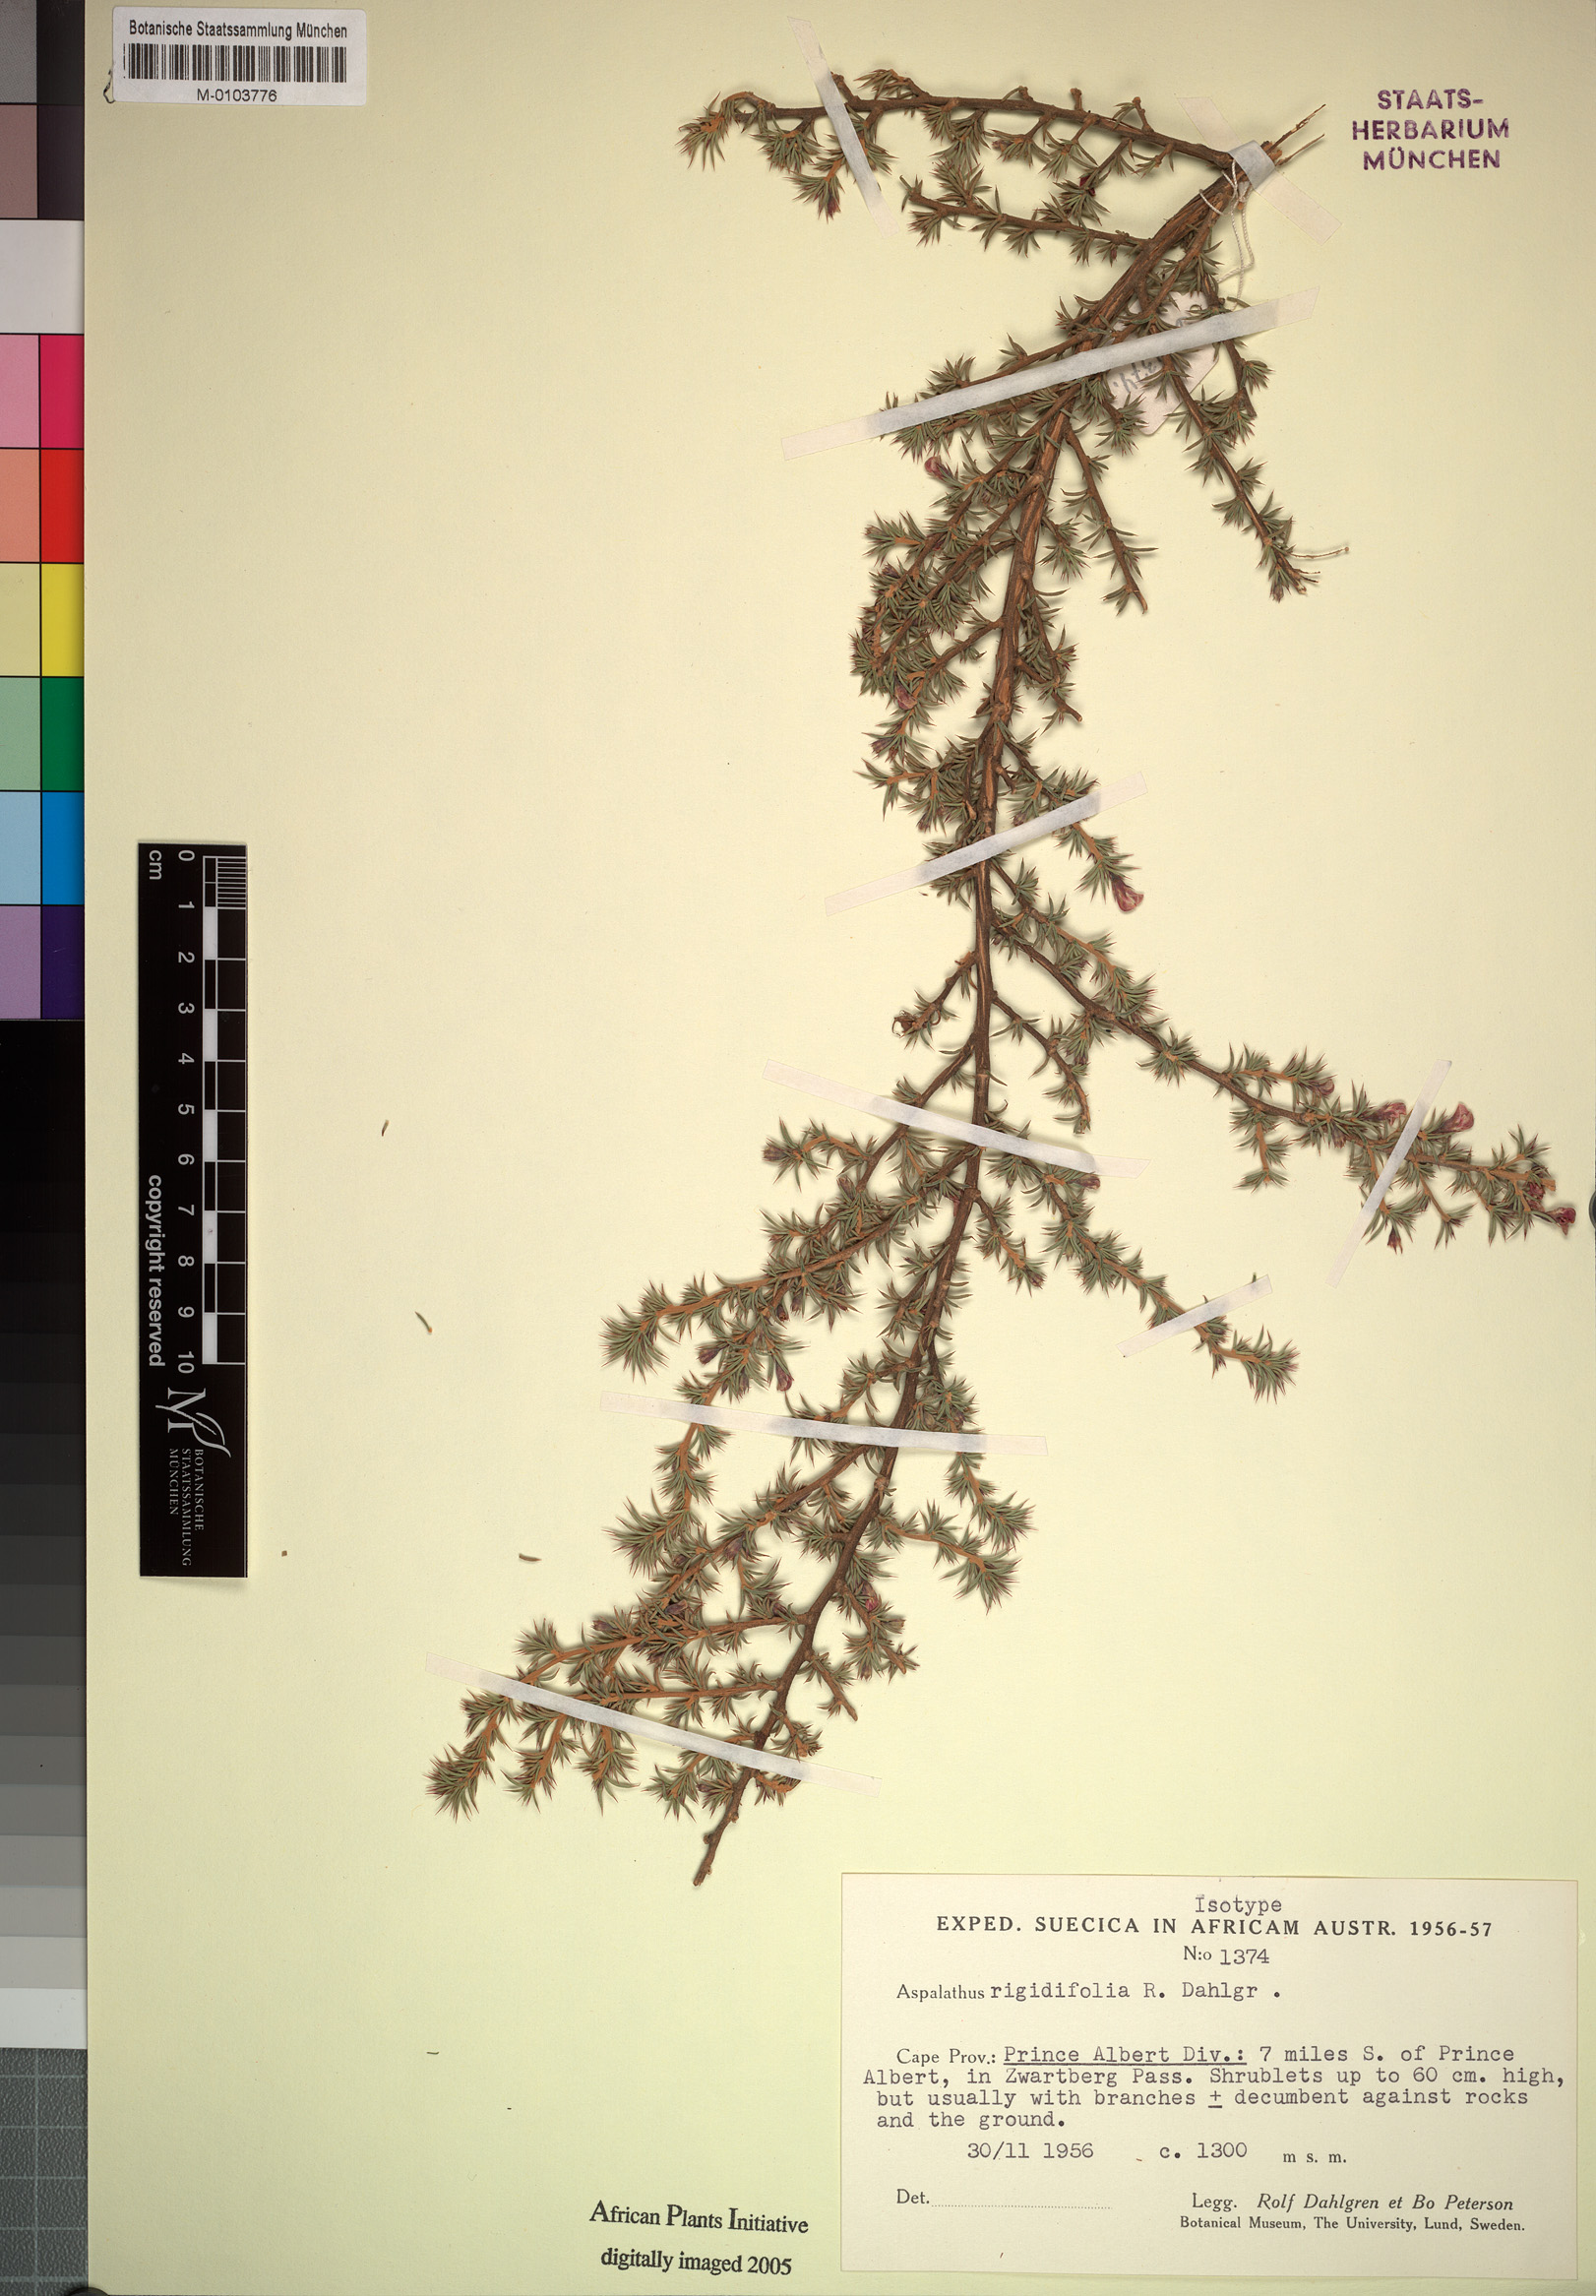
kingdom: Plantae
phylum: Tracheophyta
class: Magnoliopsida
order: Fabales
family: Fabaceae
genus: Aspalathus
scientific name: Aspalathus rigidifolia
